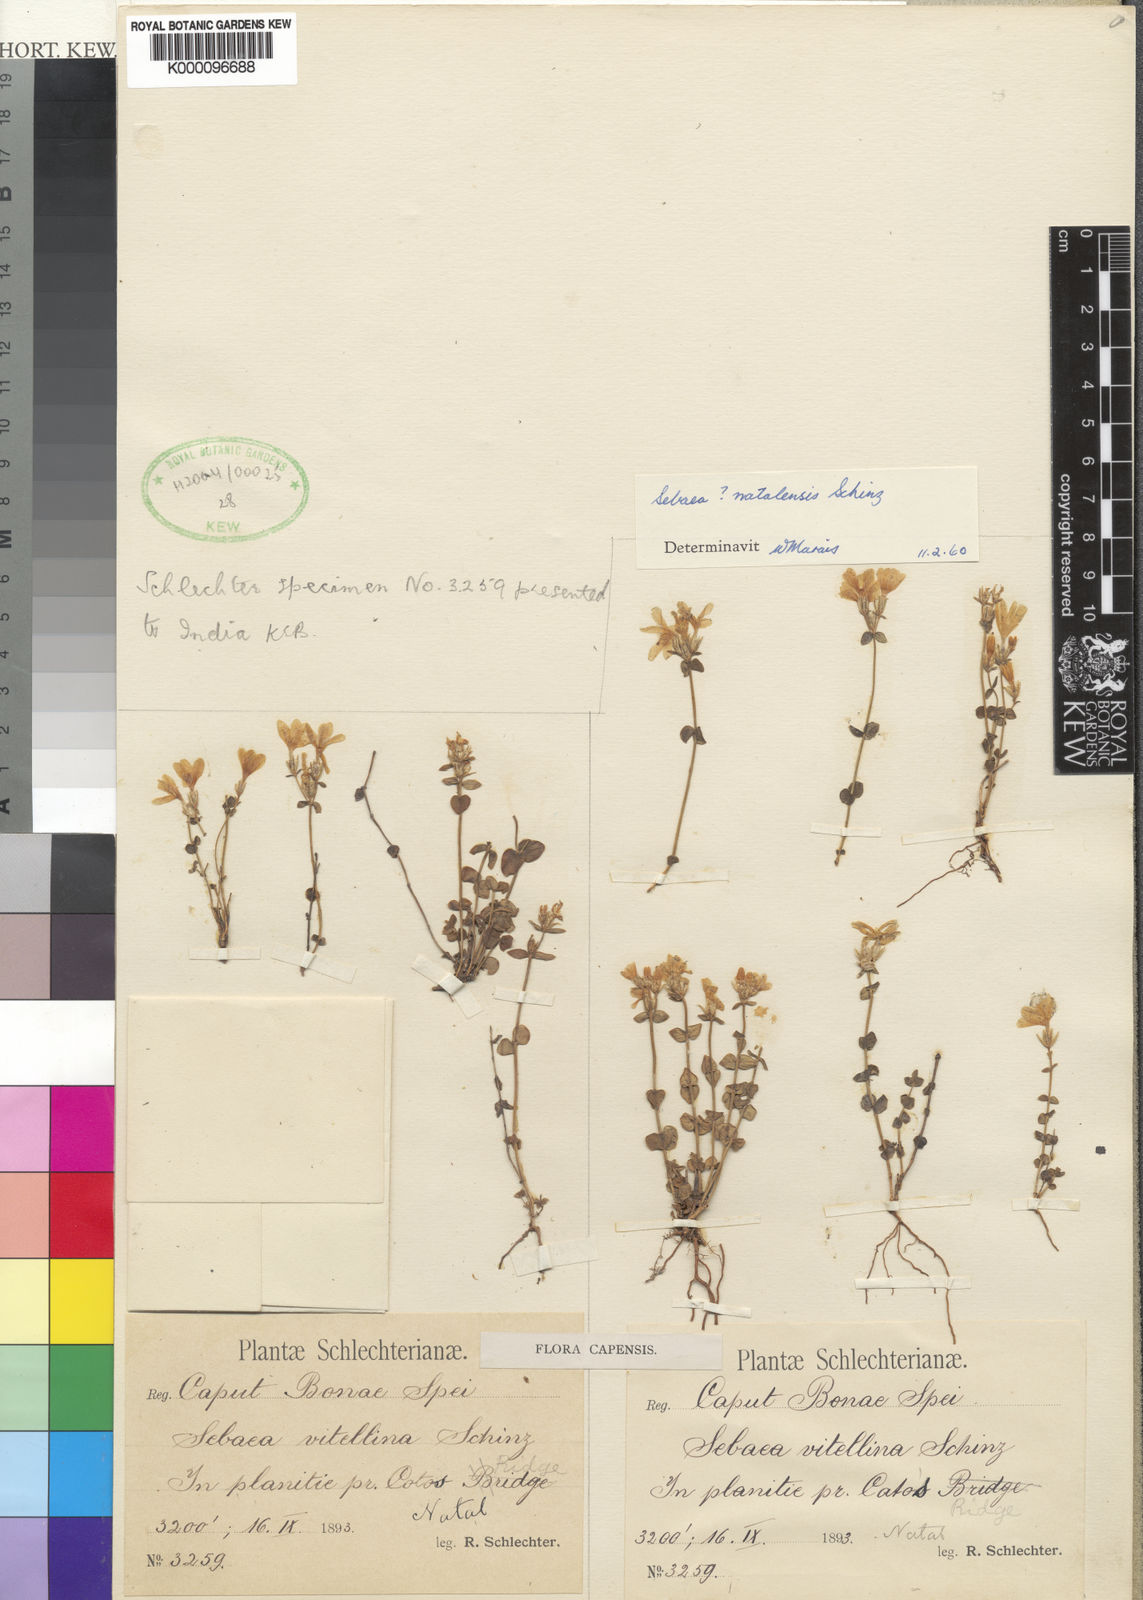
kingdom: Plantae
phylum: Tracheophyta
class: Magnoliopsida
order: Gentianales
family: Gentianaceae
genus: Sebaea
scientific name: Sebaea natalensis
